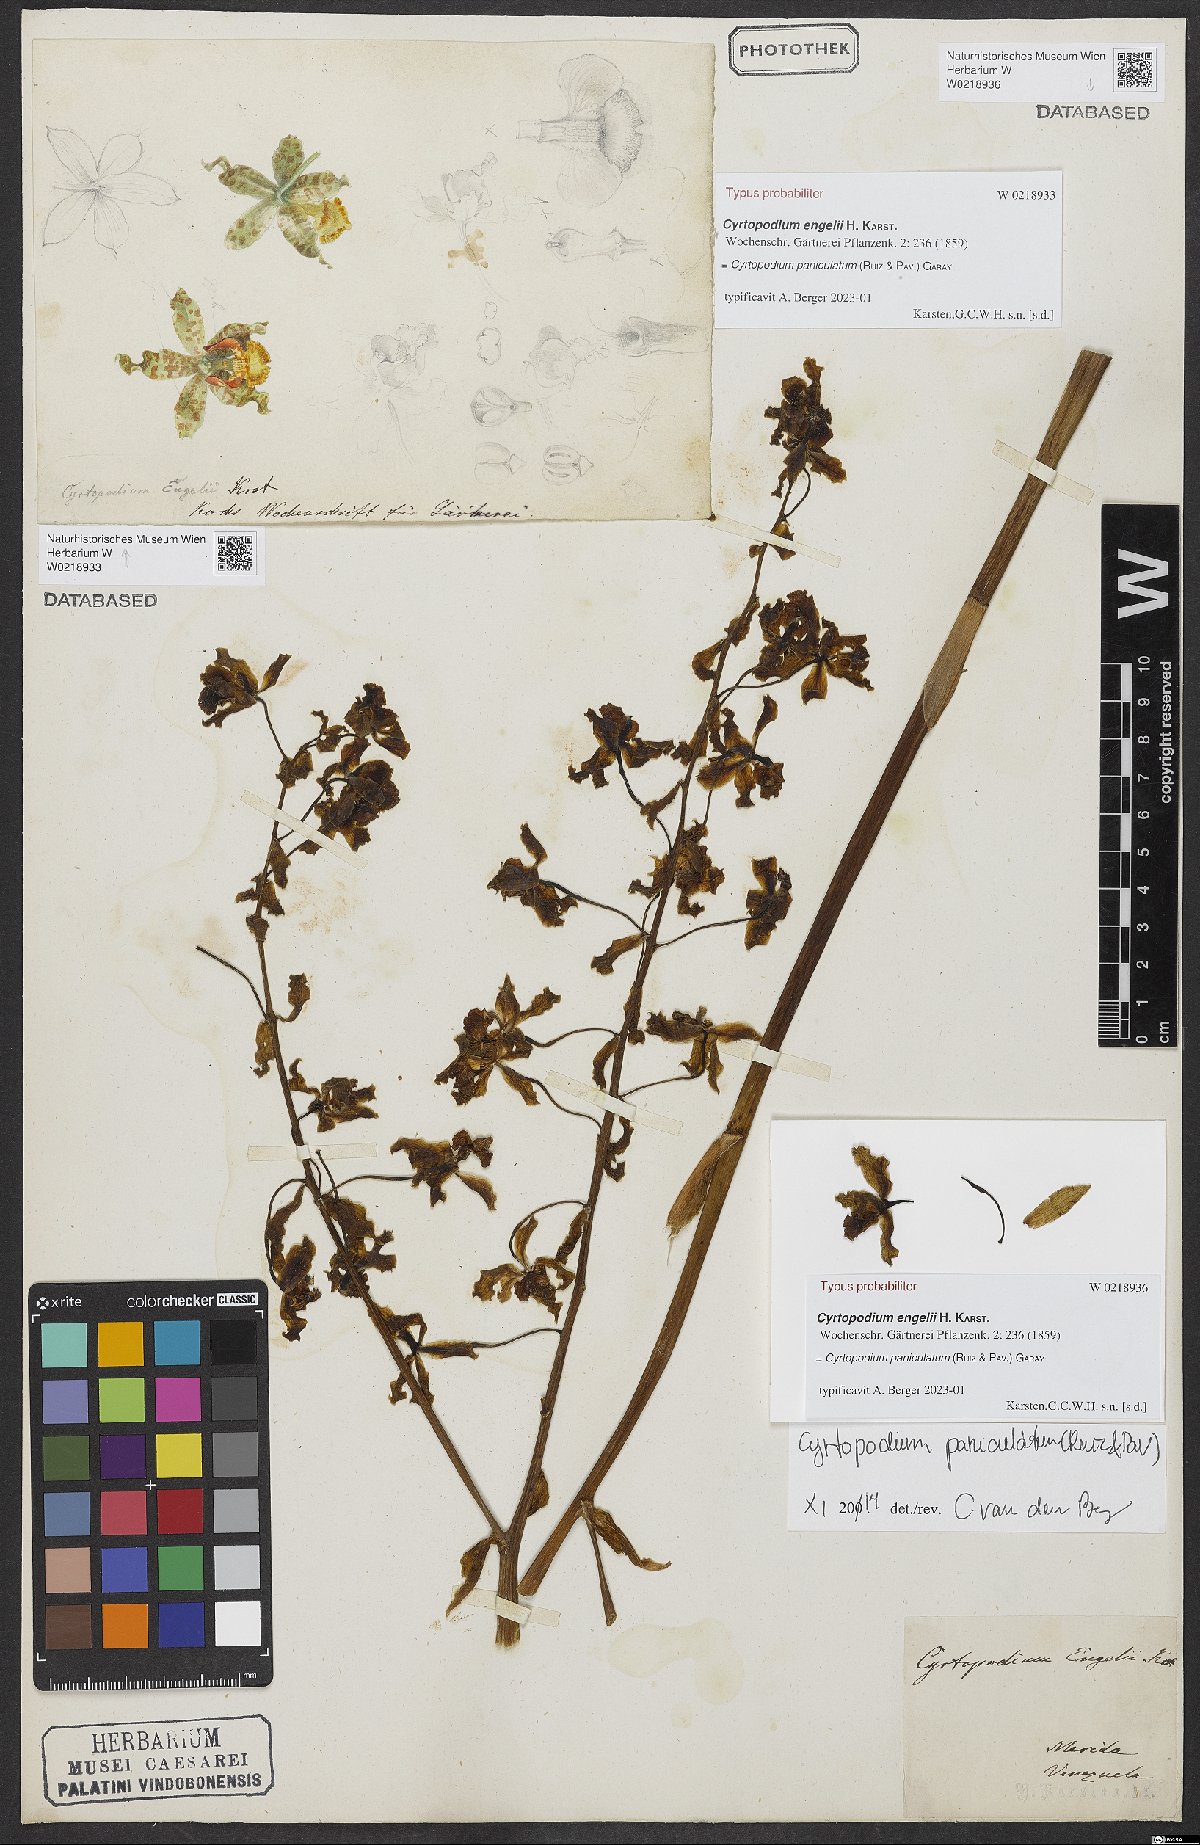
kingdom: Plantae
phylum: Tracheophyta
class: Liliopsida
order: Asparagales
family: Orchidaceae
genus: Cyrtopodium
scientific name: Cyrtopodium paniculatum
